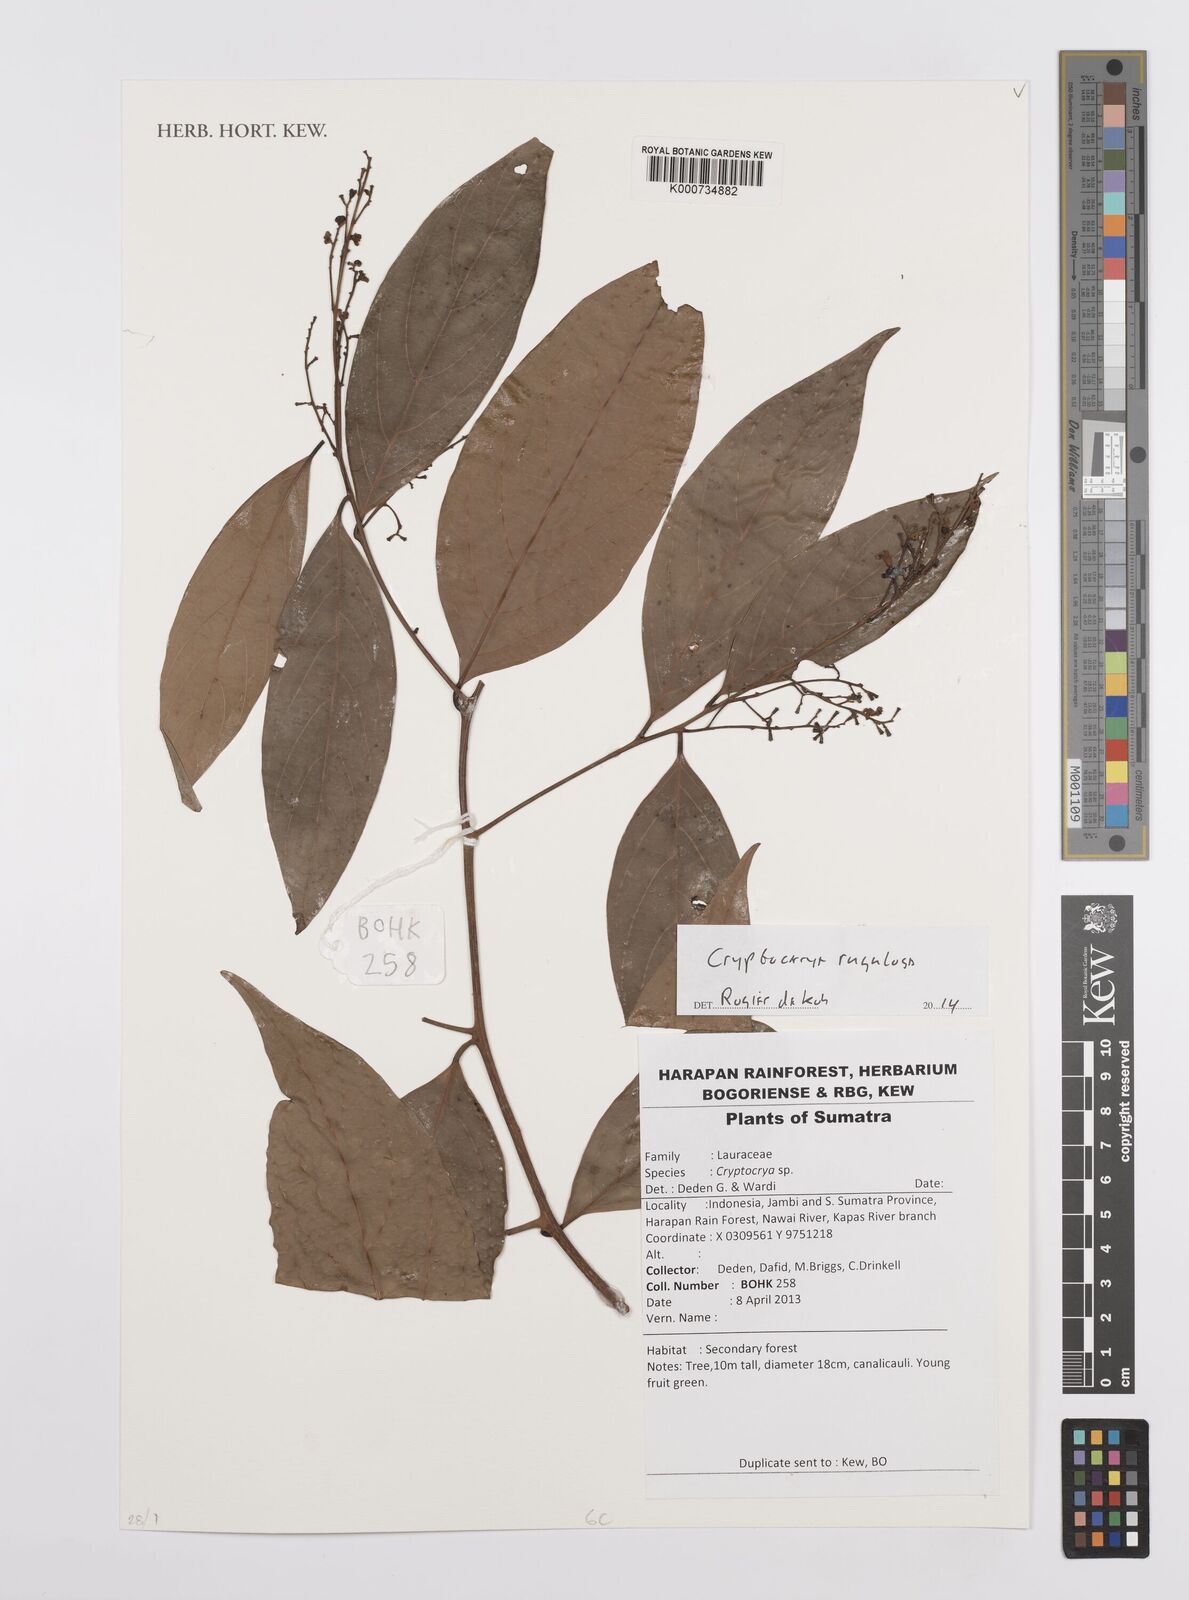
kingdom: Plantae
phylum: Tracheophyta
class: Magnoliopsida
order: Laurales
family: Lauraceae
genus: Cryptocarya
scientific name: Cryptocarya rugulosa
